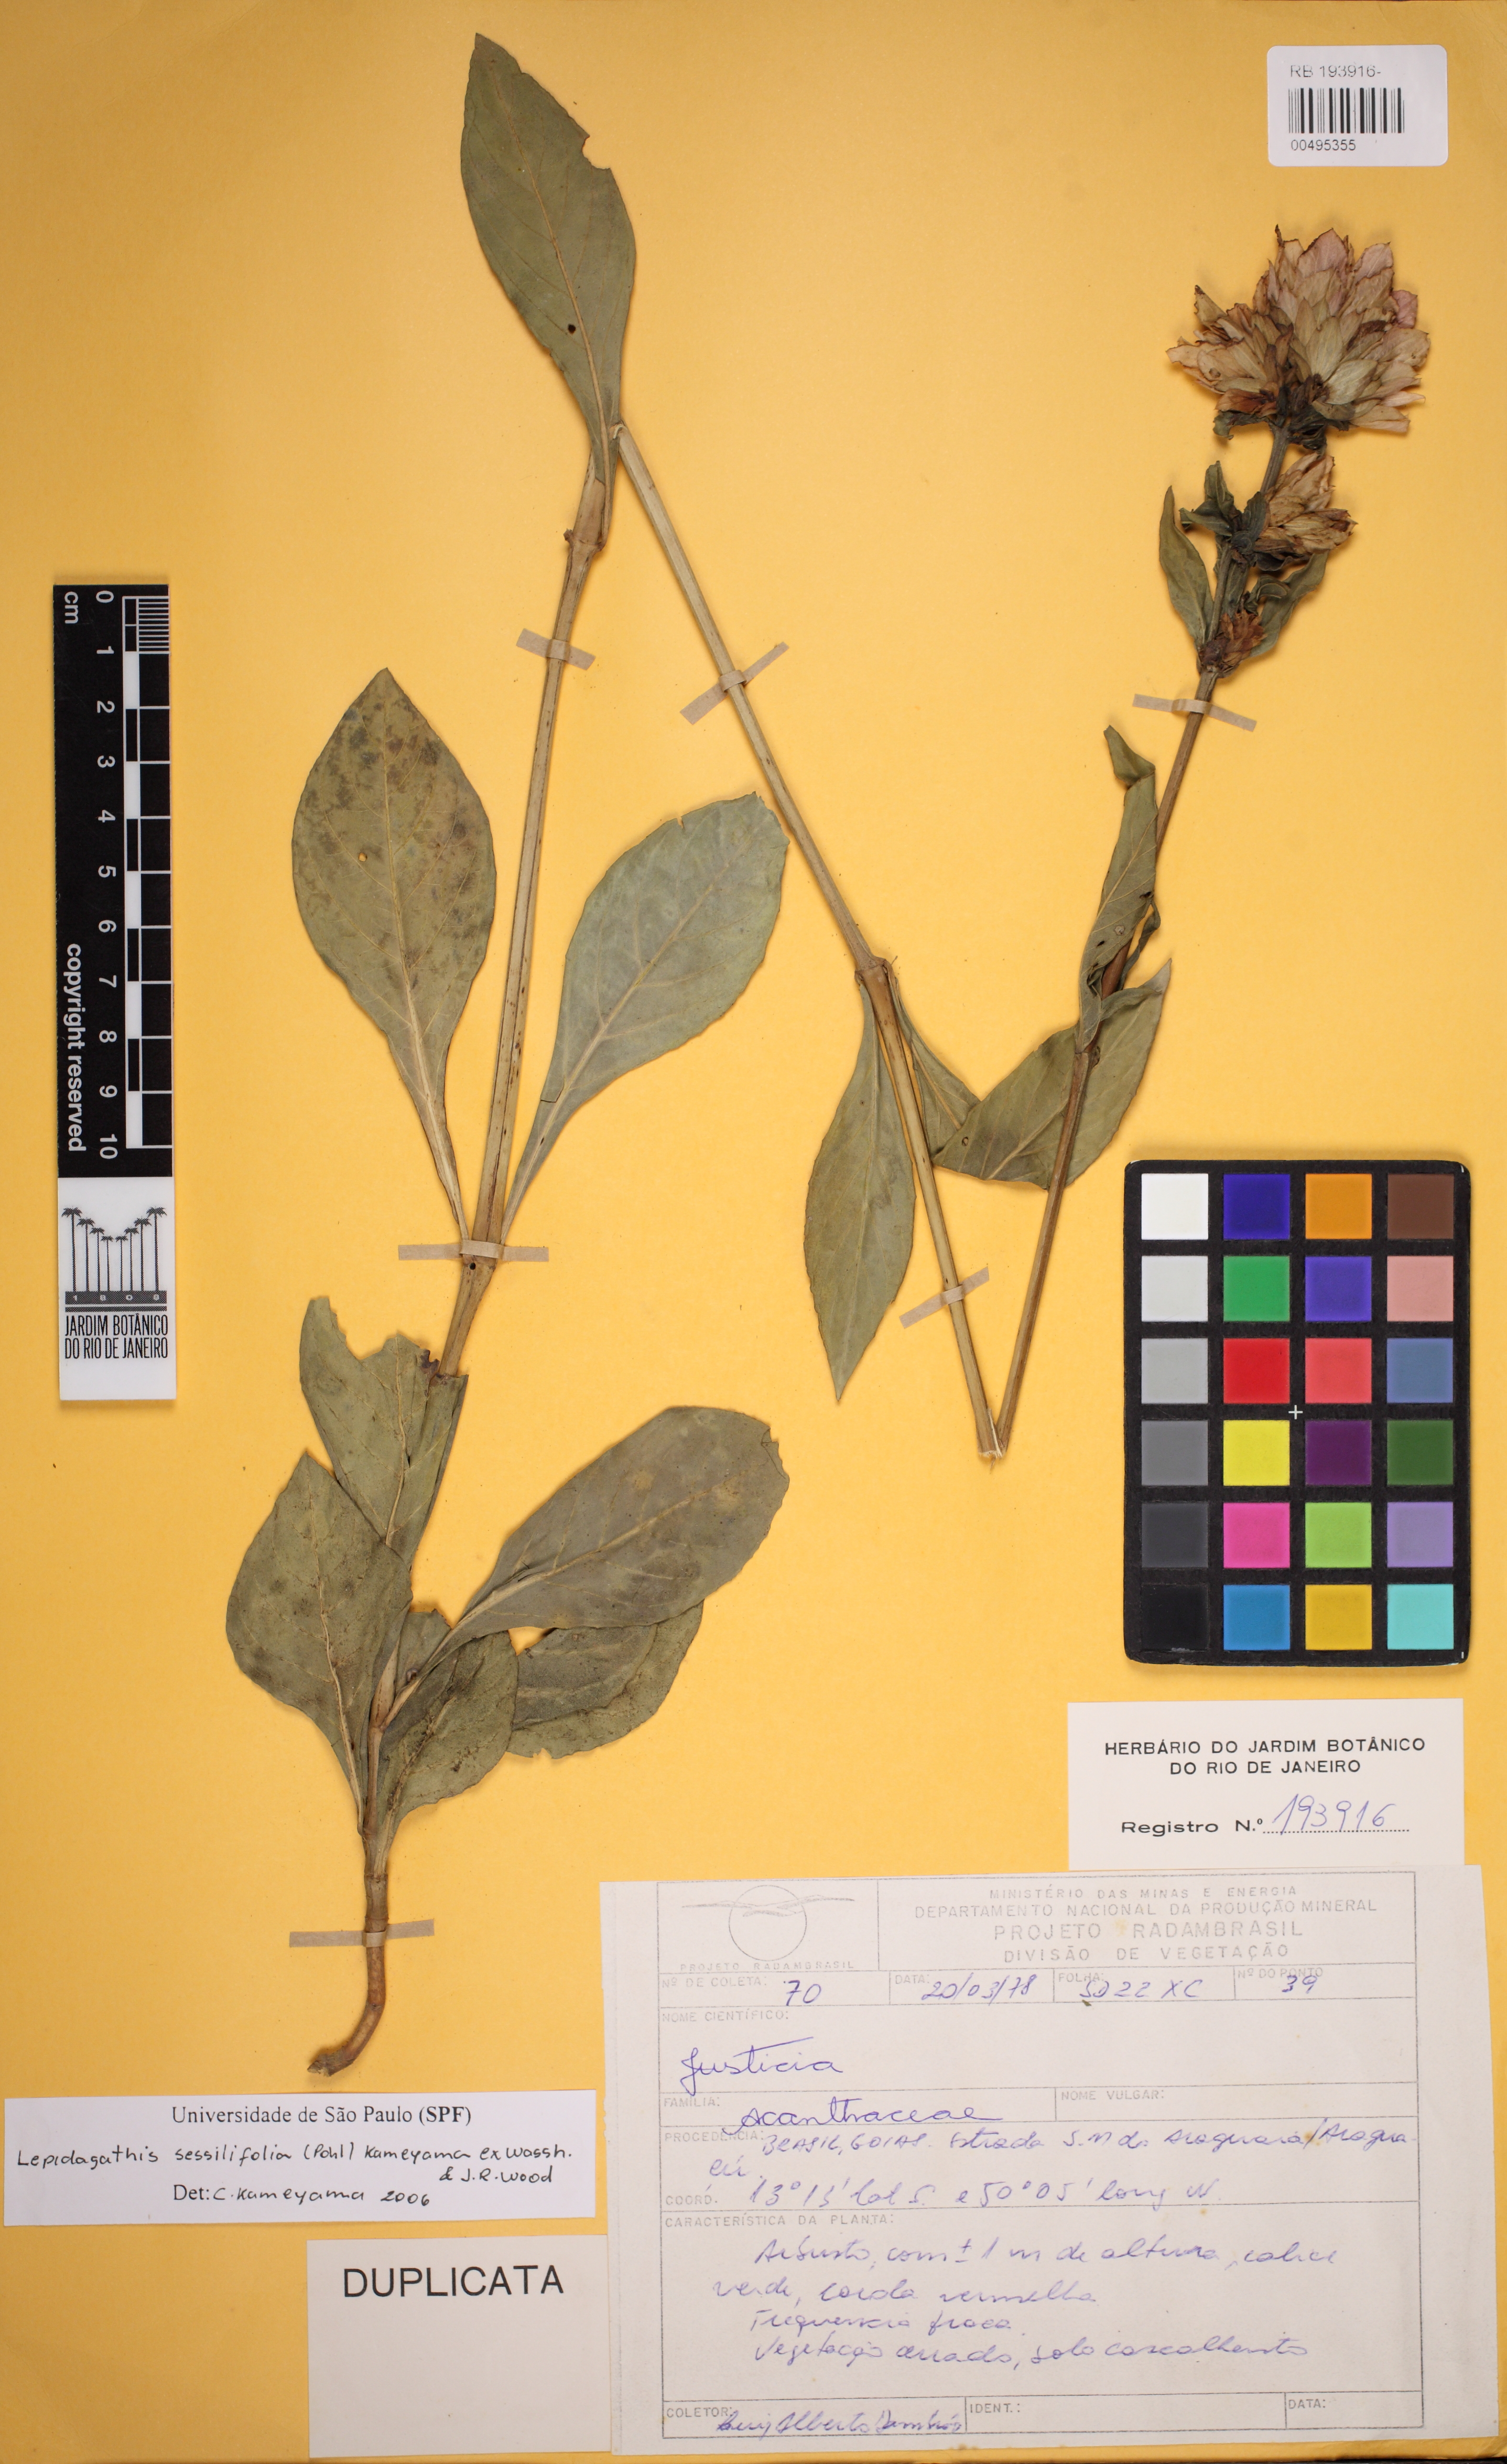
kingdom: Plantae
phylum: Tracheophyta
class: Magnoliopsida
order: Lamiales
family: Acanthaceae
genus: Lepidagathis
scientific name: Lepidagathis sessilifolia
